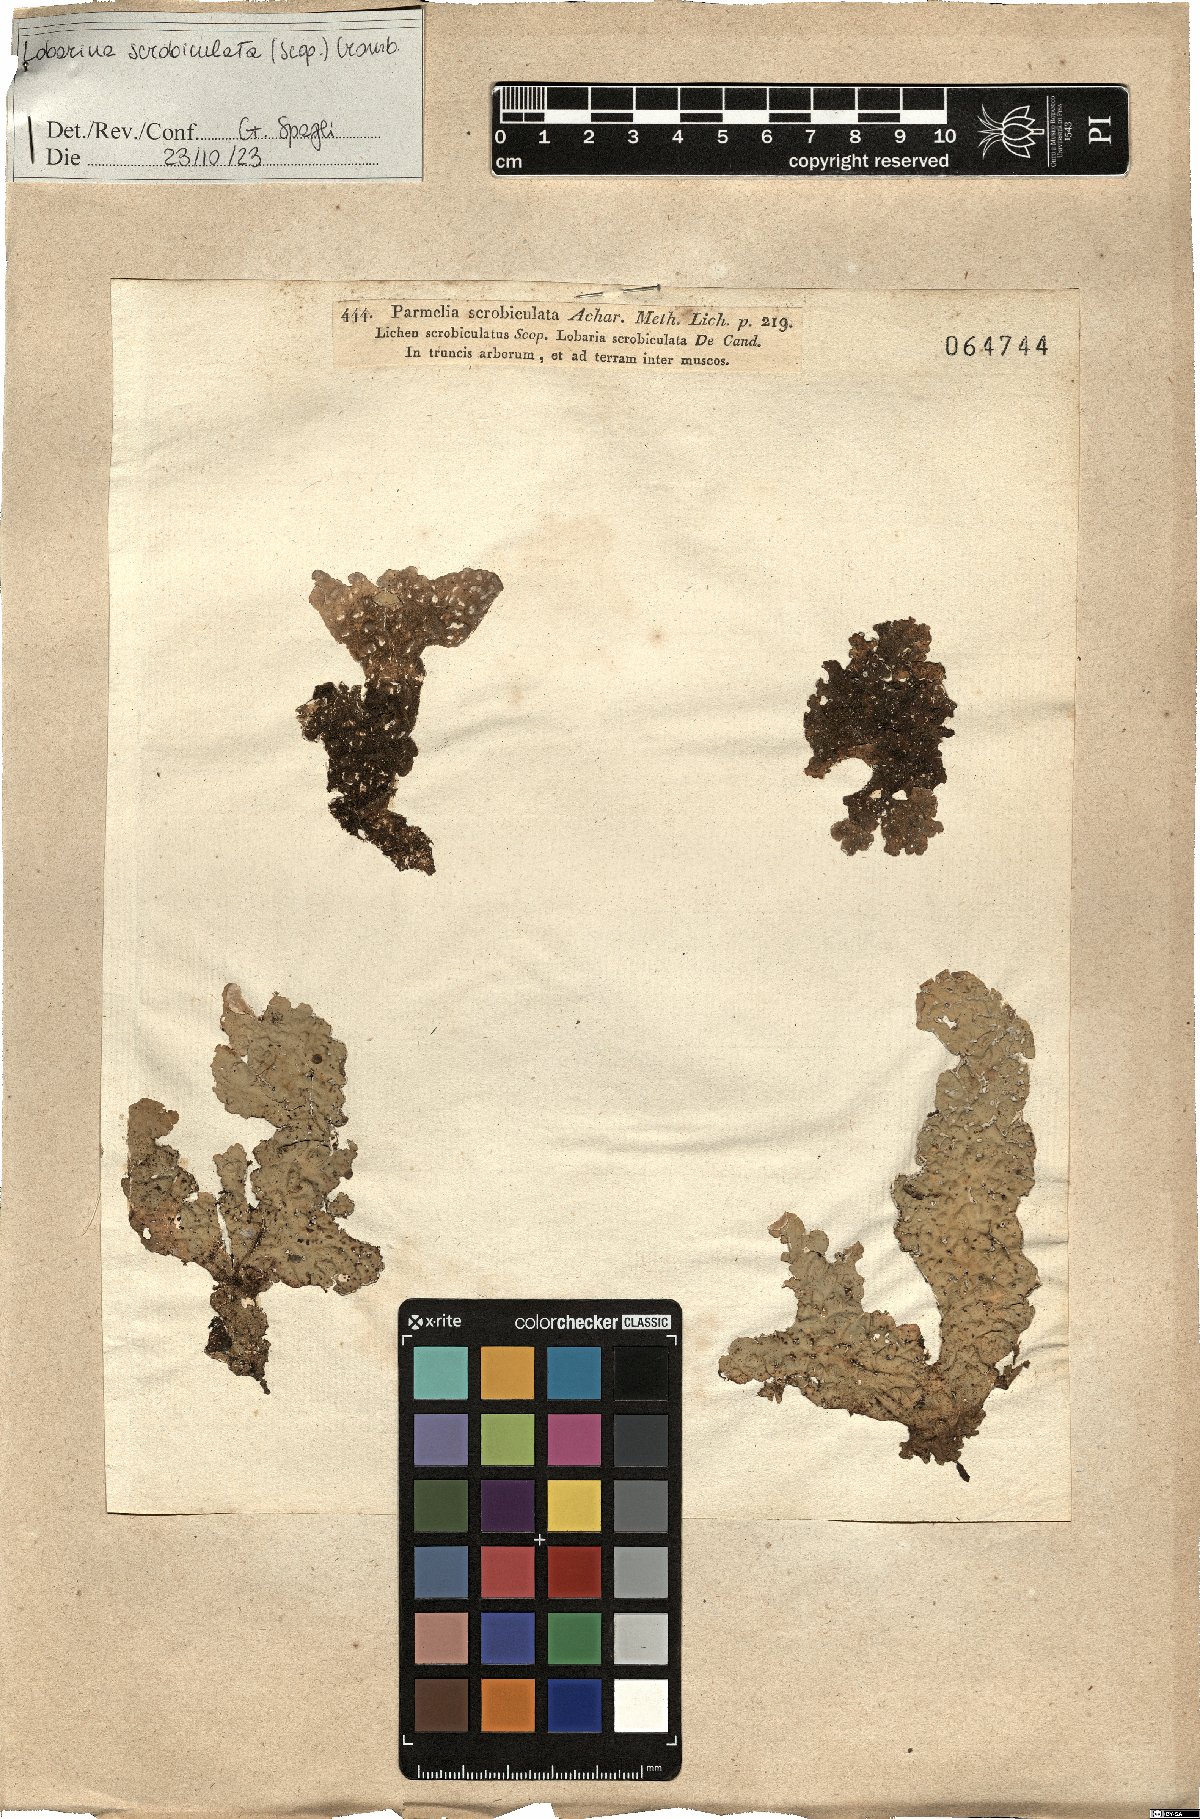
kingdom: Fungi
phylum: Ascomycota
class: Lecanoromycetes
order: Peltigerales
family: Lobariaceae
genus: Lobarina
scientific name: Lobarina scrobiculata
